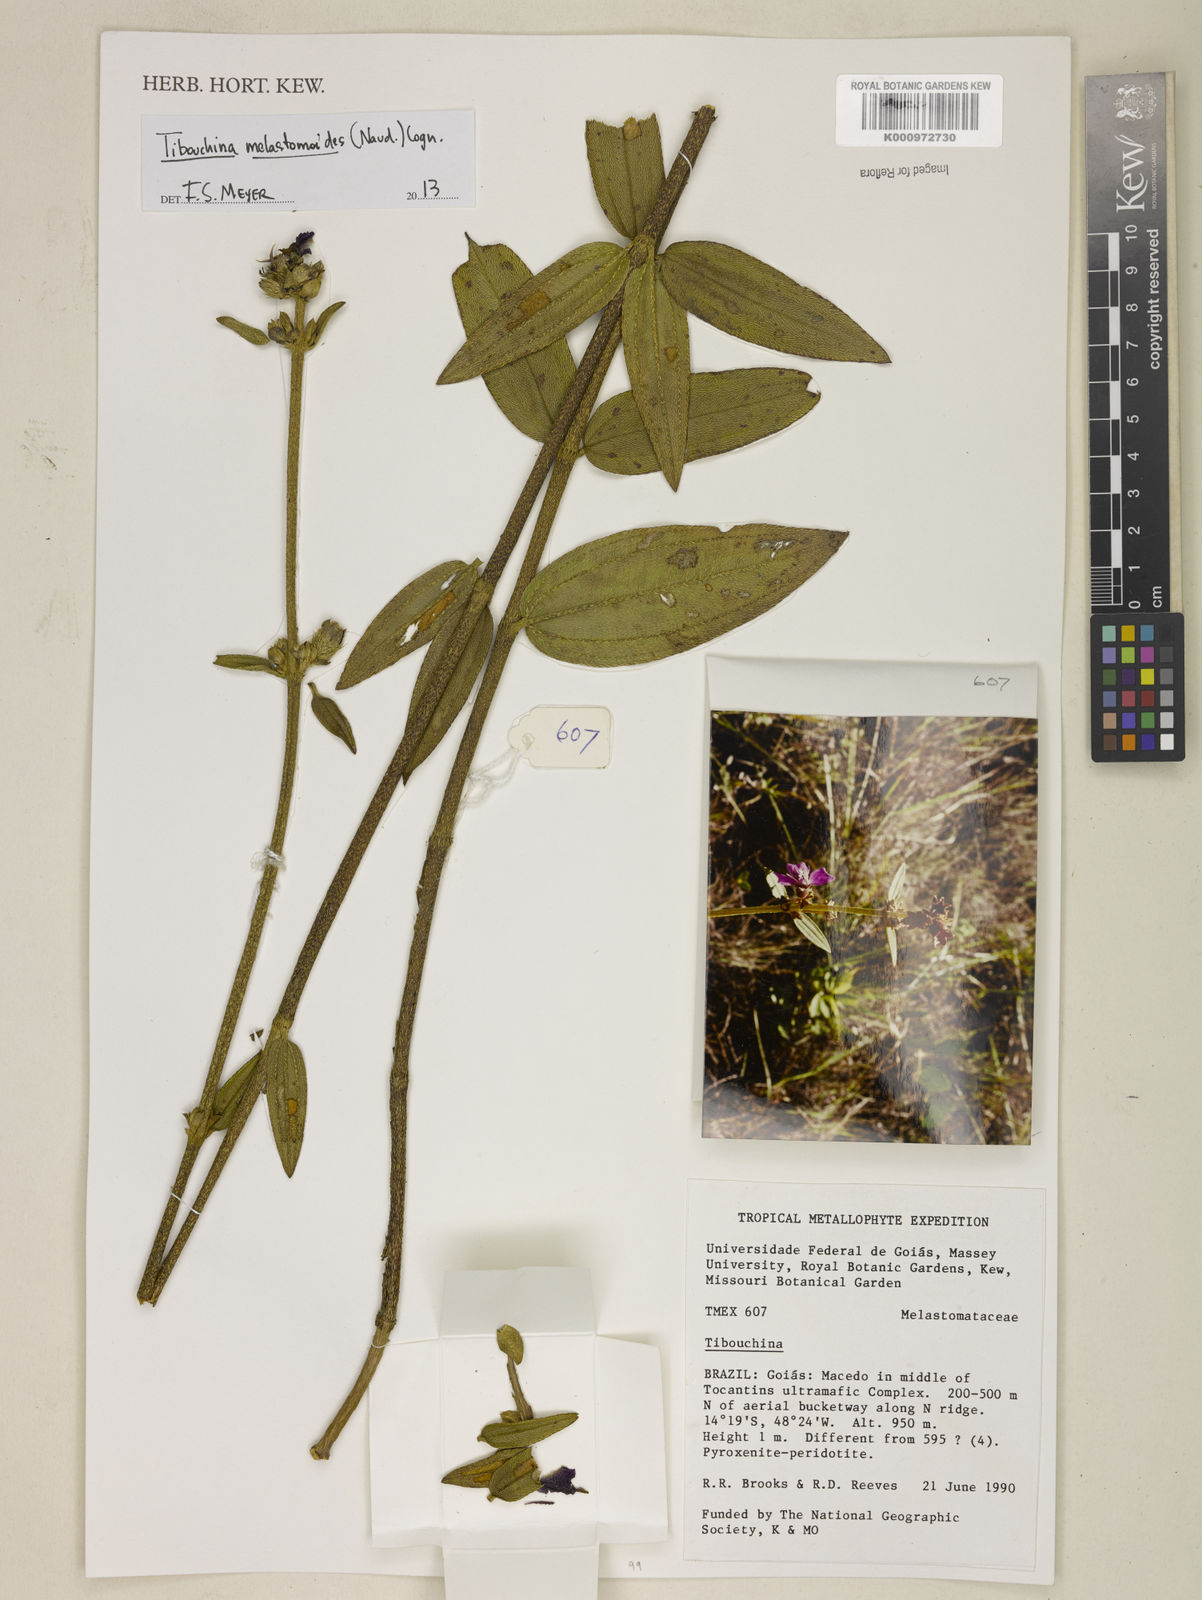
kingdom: Plantae
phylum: Tracheophyta
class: Magnoliopsida
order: Myrtales
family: Melastomataceae
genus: Pleroma
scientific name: Pleroma melastomoides
